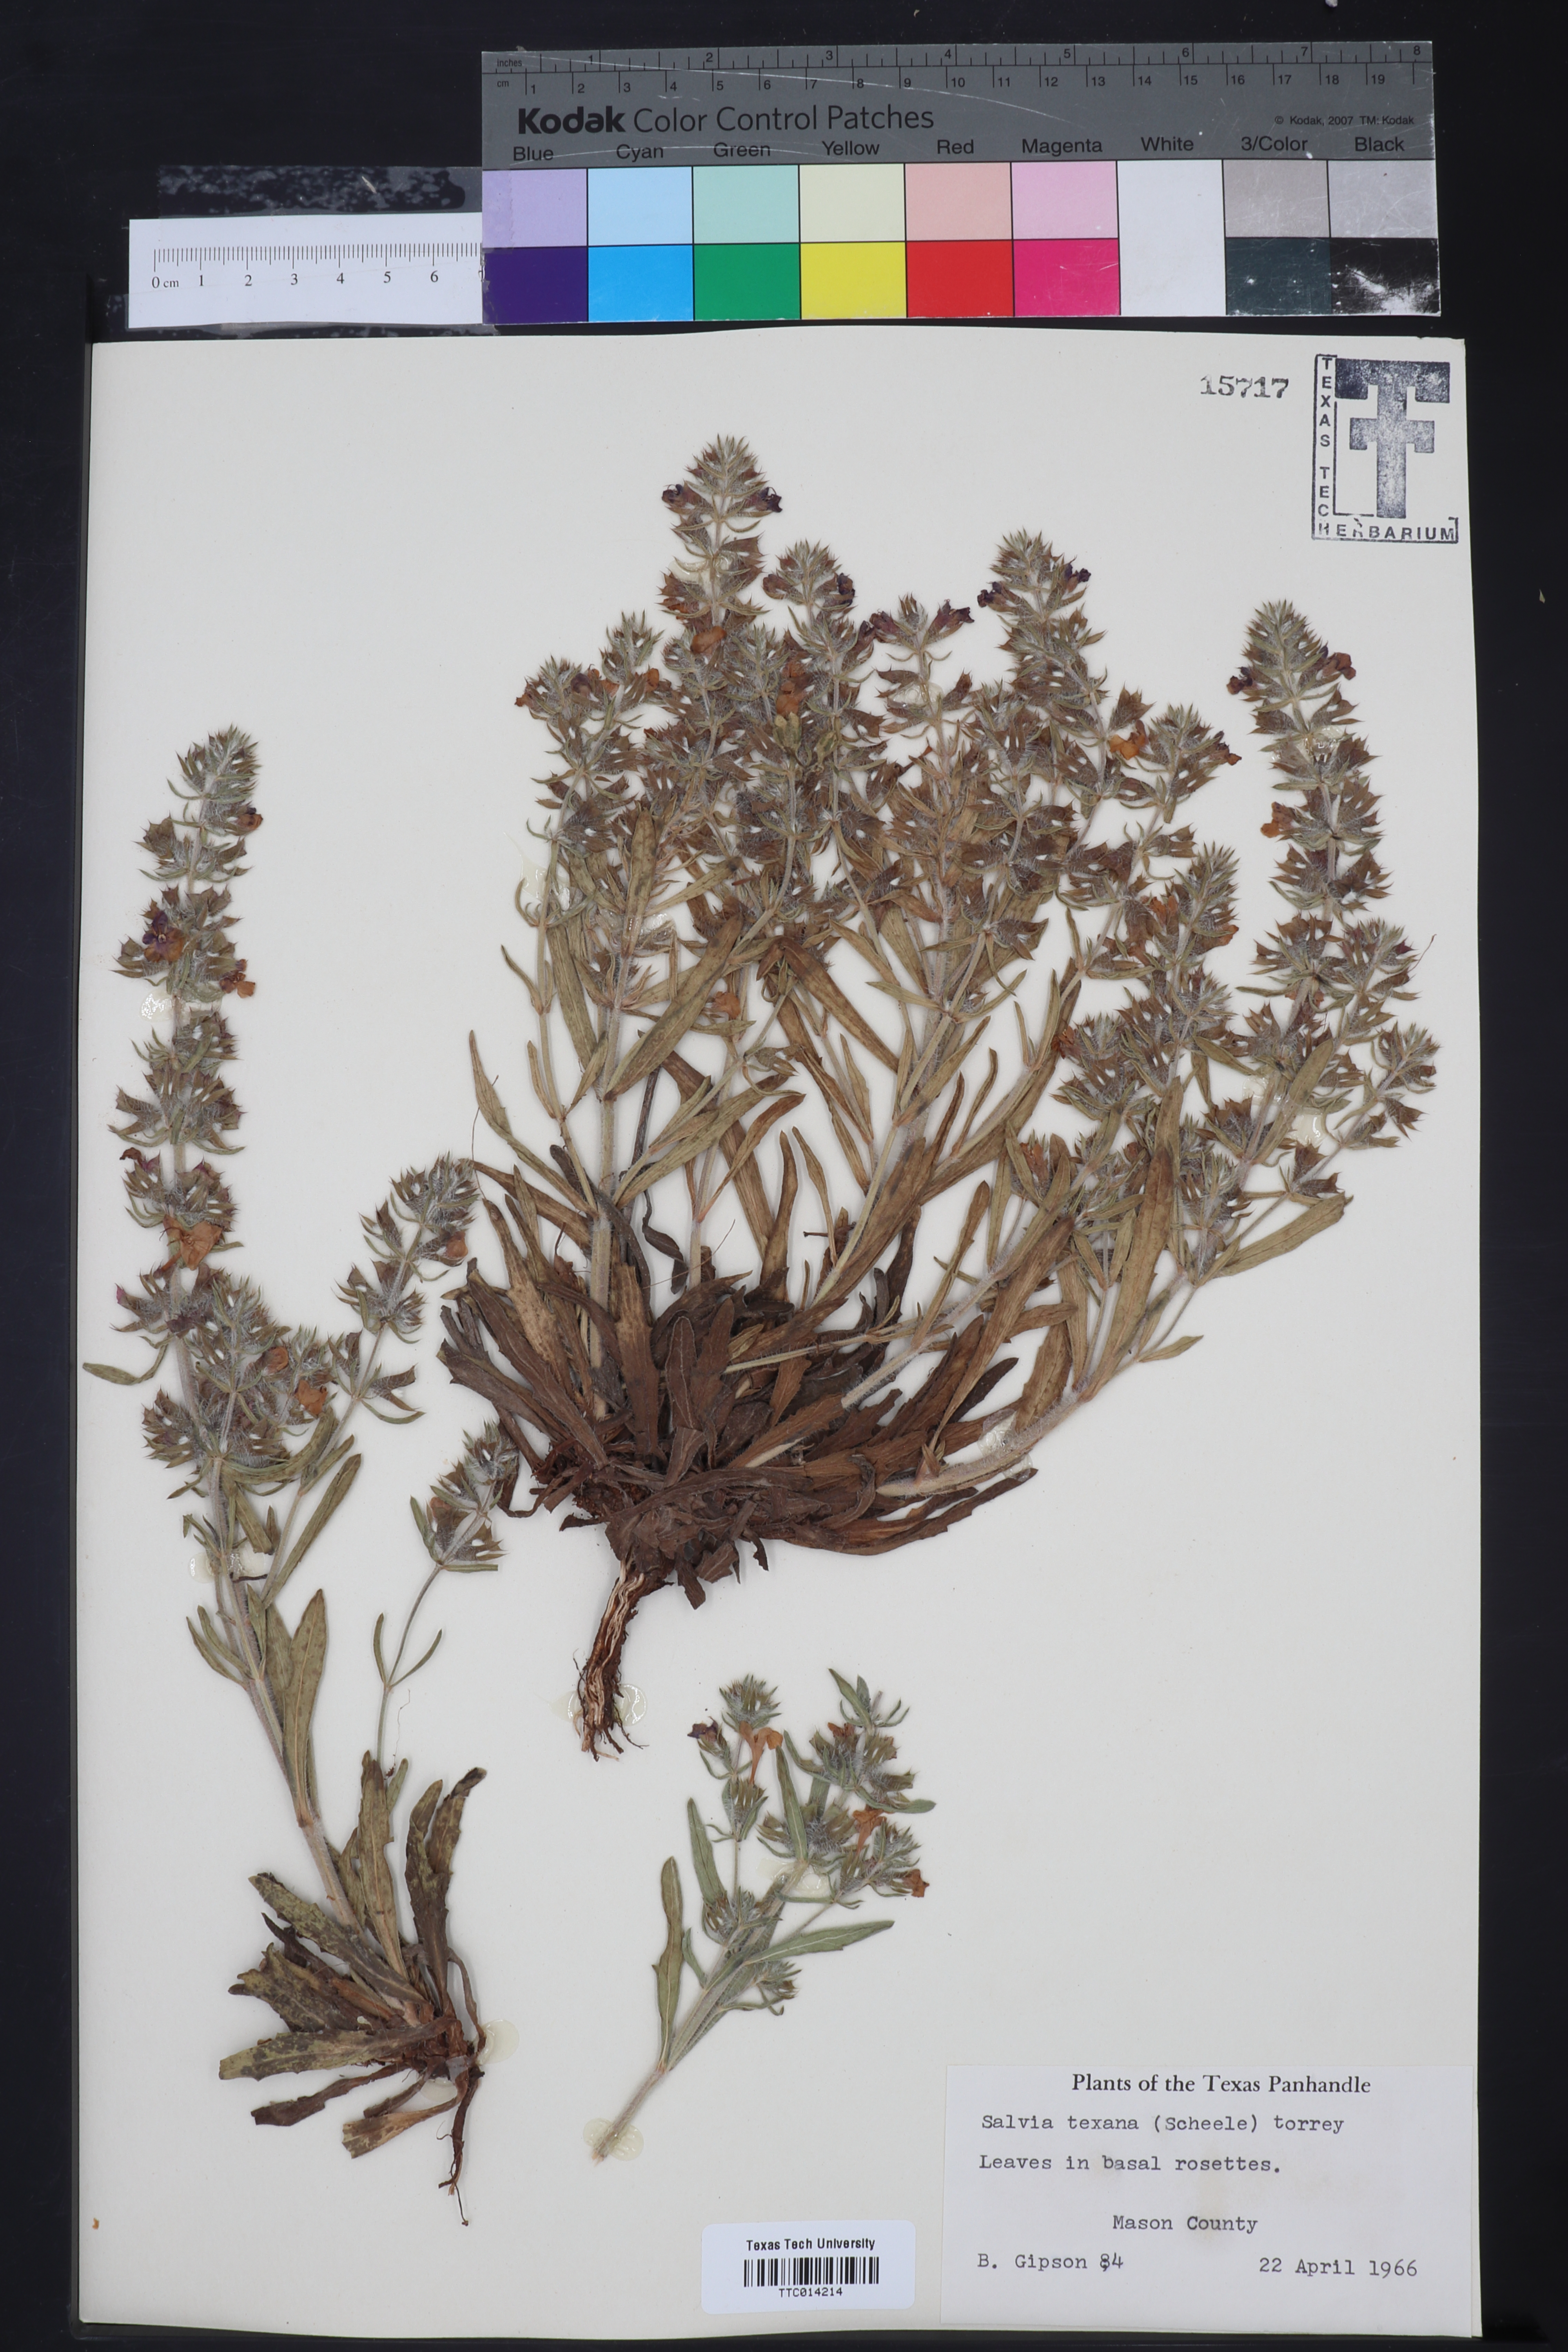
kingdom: Plantae
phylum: Tracheophyta
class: Magnoliopsida
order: Lamiales
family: Lamiaceae
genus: Salvia
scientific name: Salvia texana
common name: Texas sage
